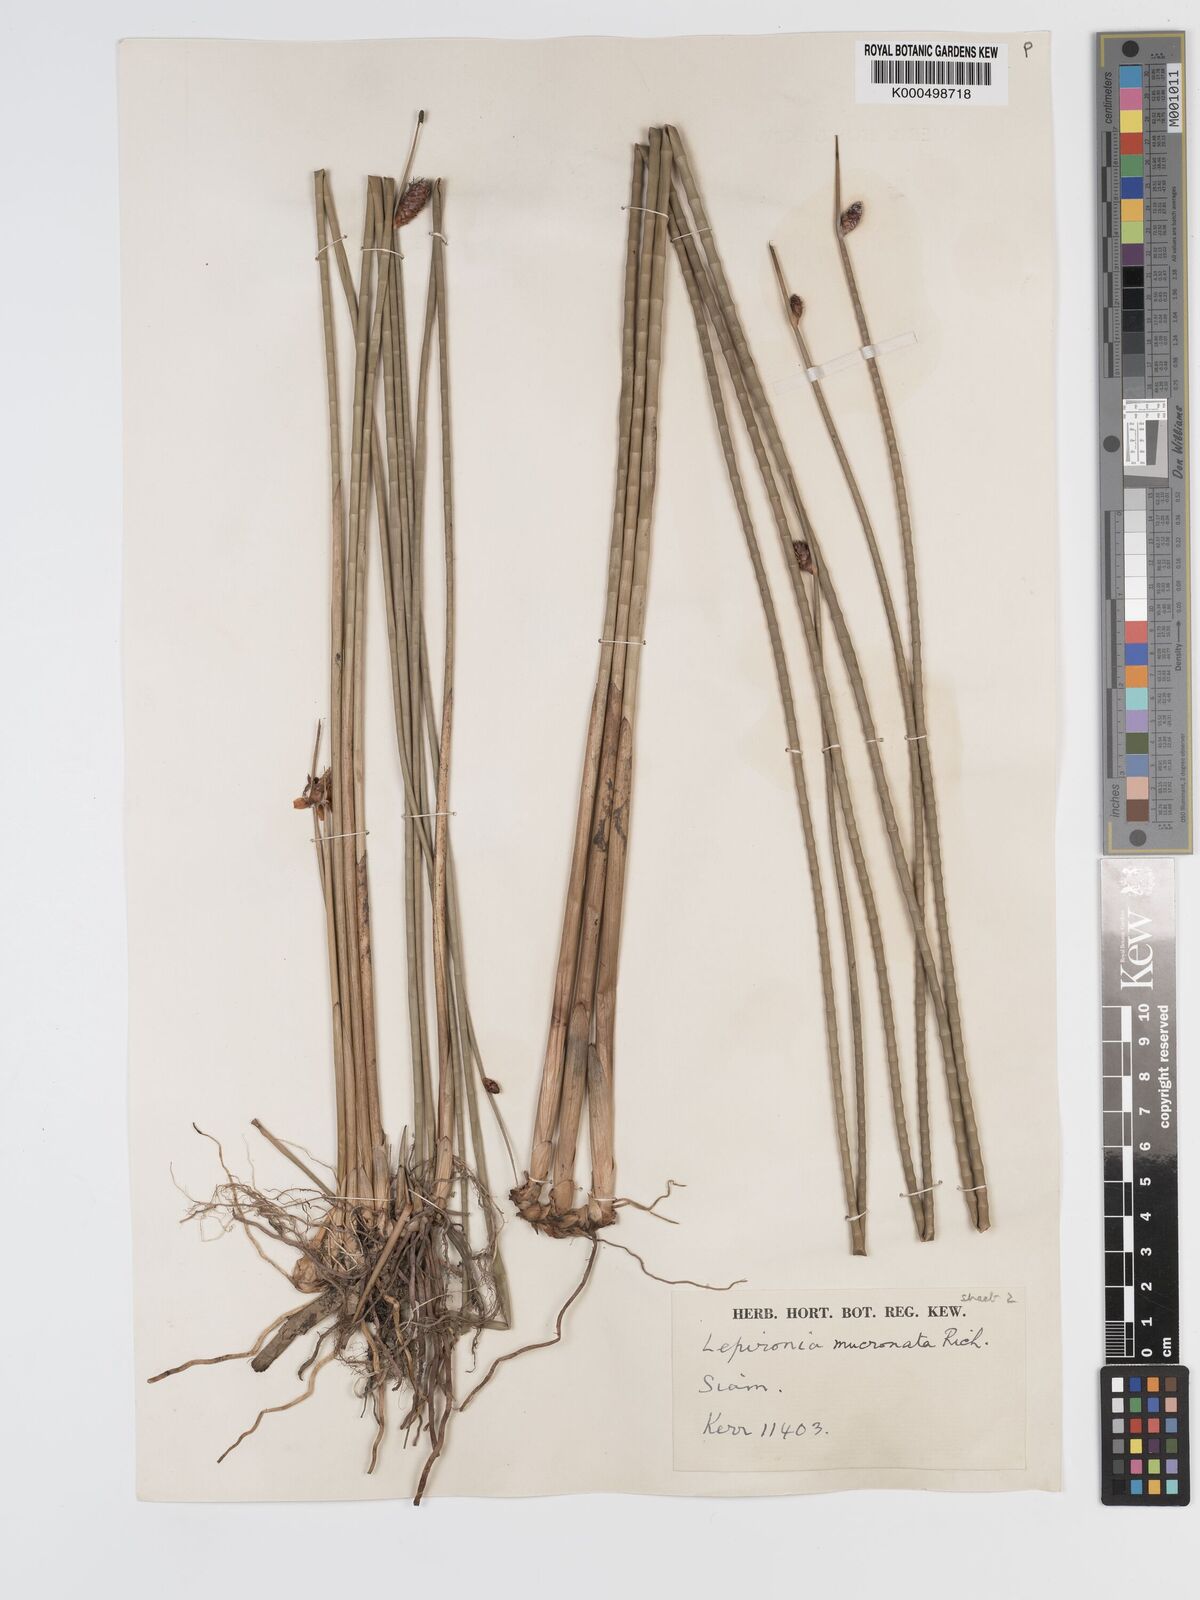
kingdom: Plantae
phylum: Tracheophyta
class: Liliopsida
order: Poales
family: Cyperaceae
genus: Lepironia
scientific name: Lepironia articulata
